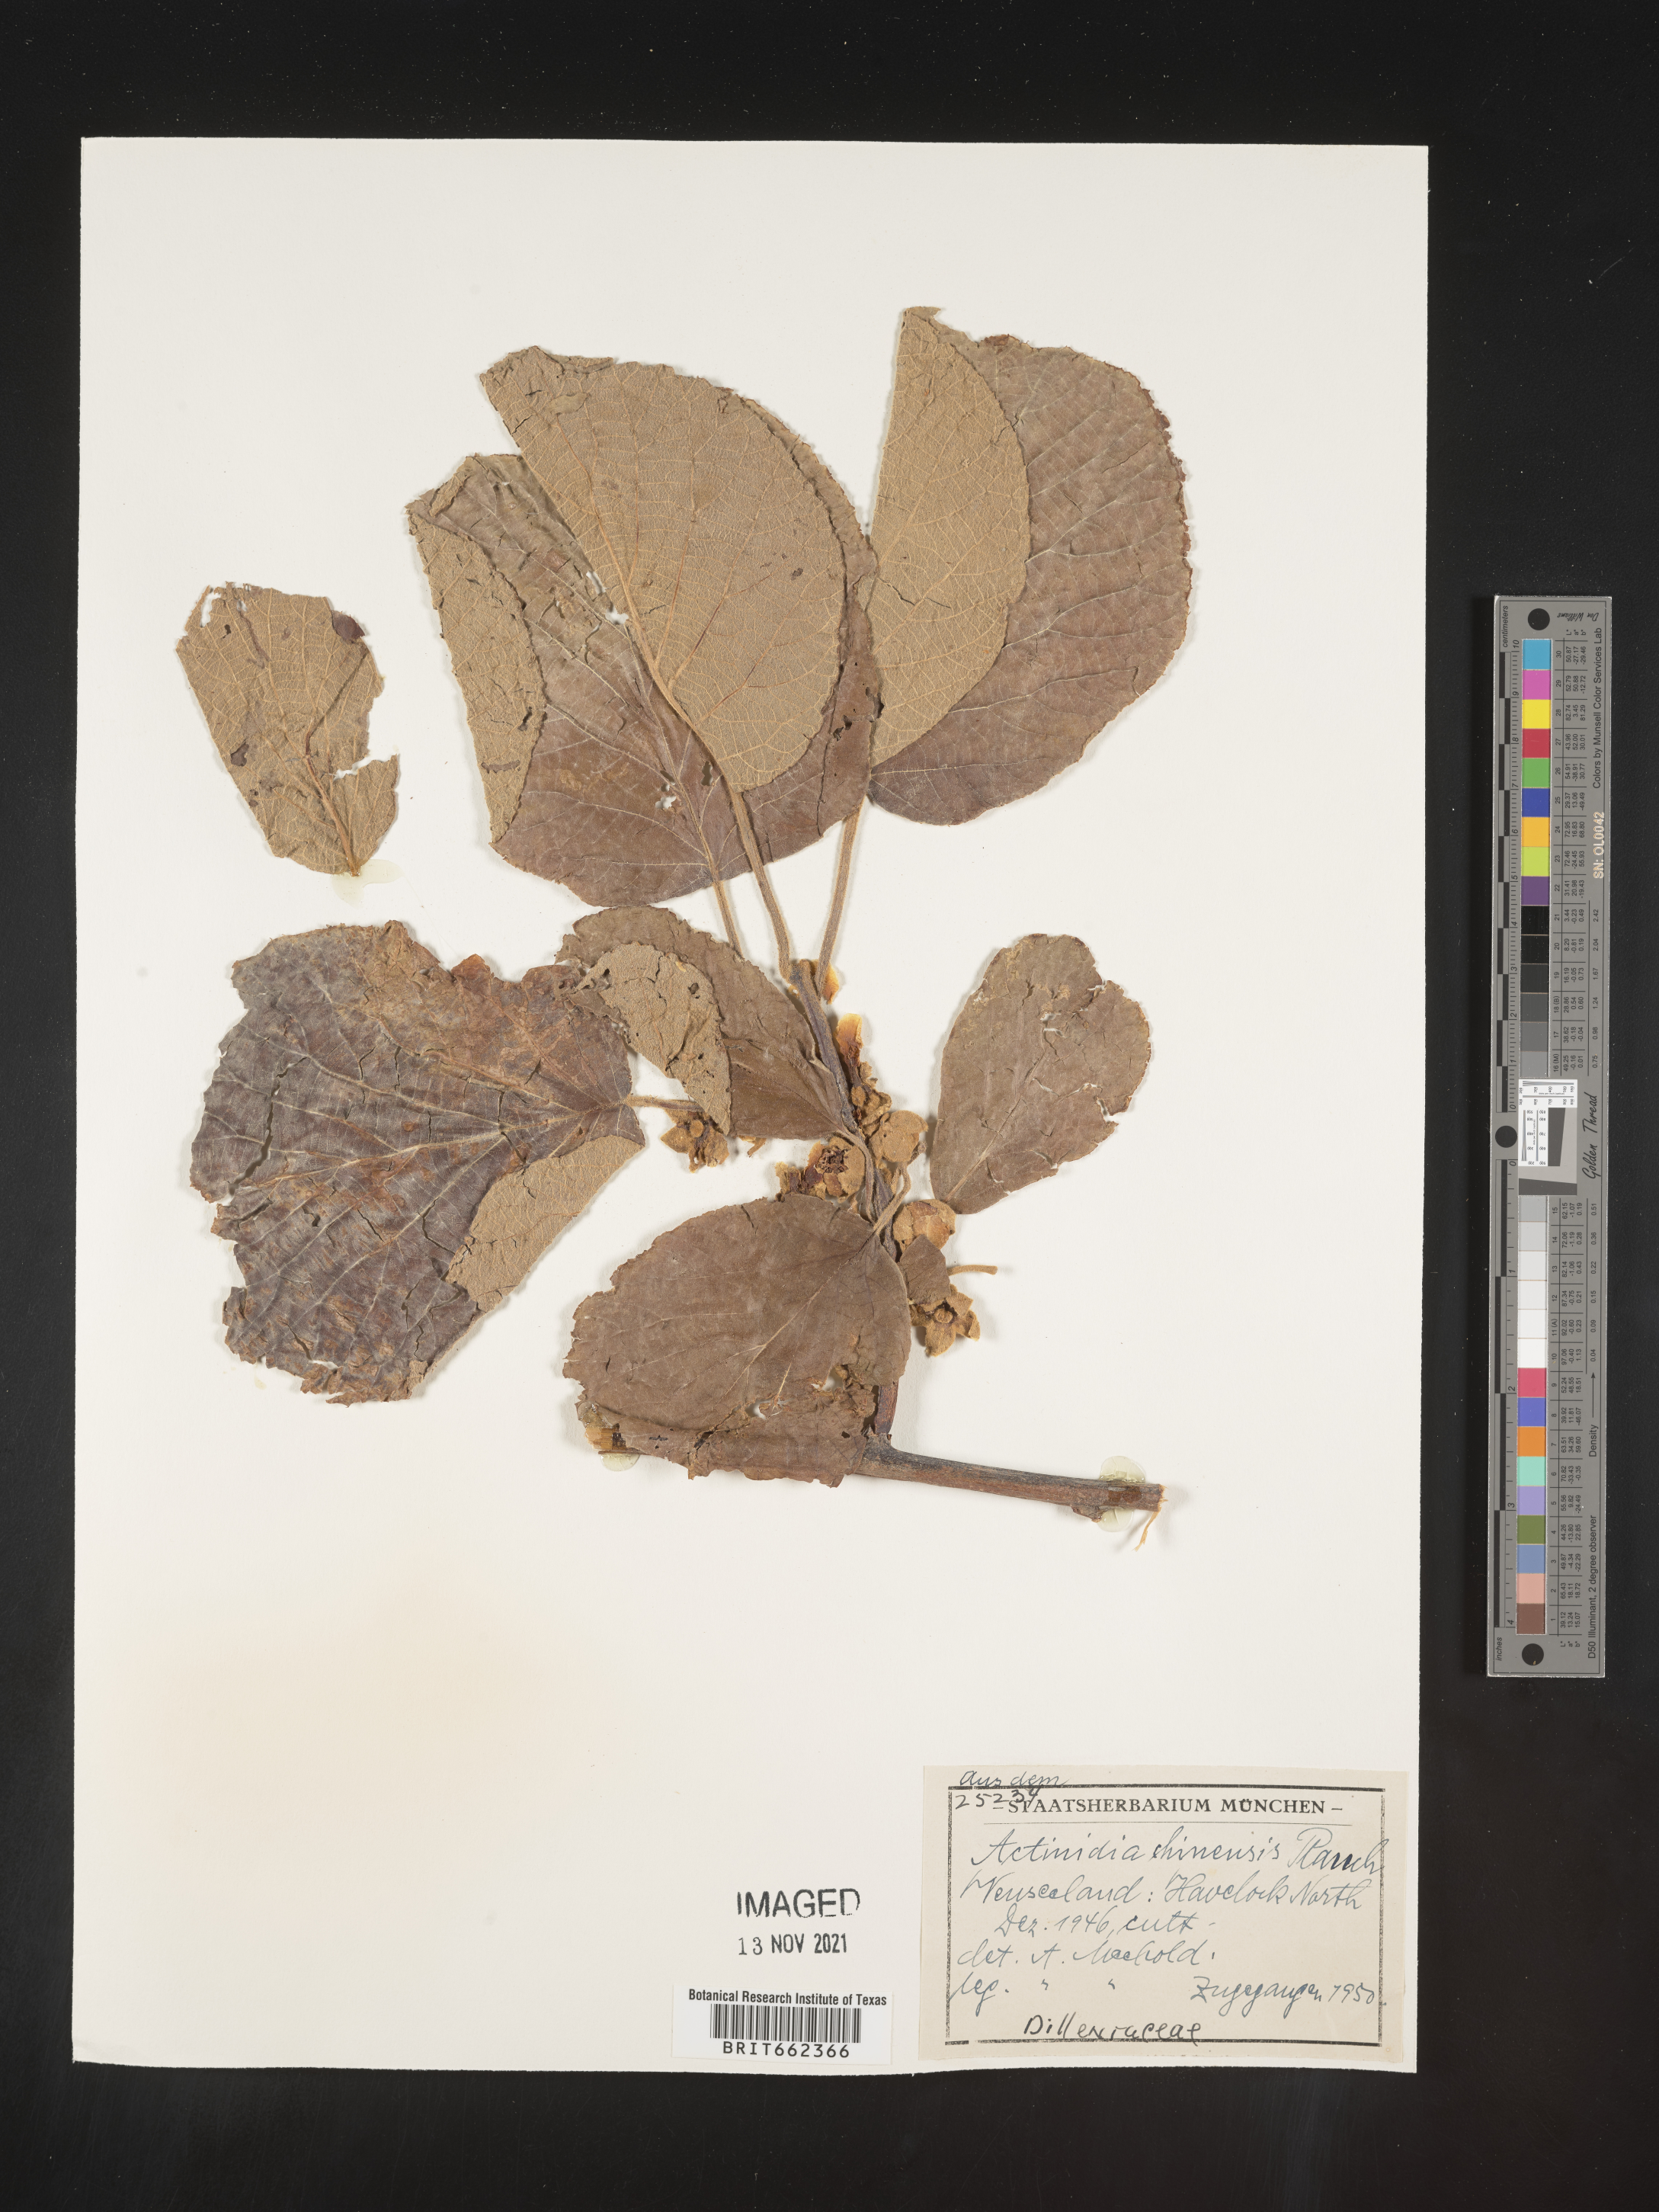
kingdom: Plantae
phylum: Tracheophyta
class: Magnoliopsida
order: Ericales
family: Actinidiaceae
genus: Actinidia
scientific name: Actinidia
